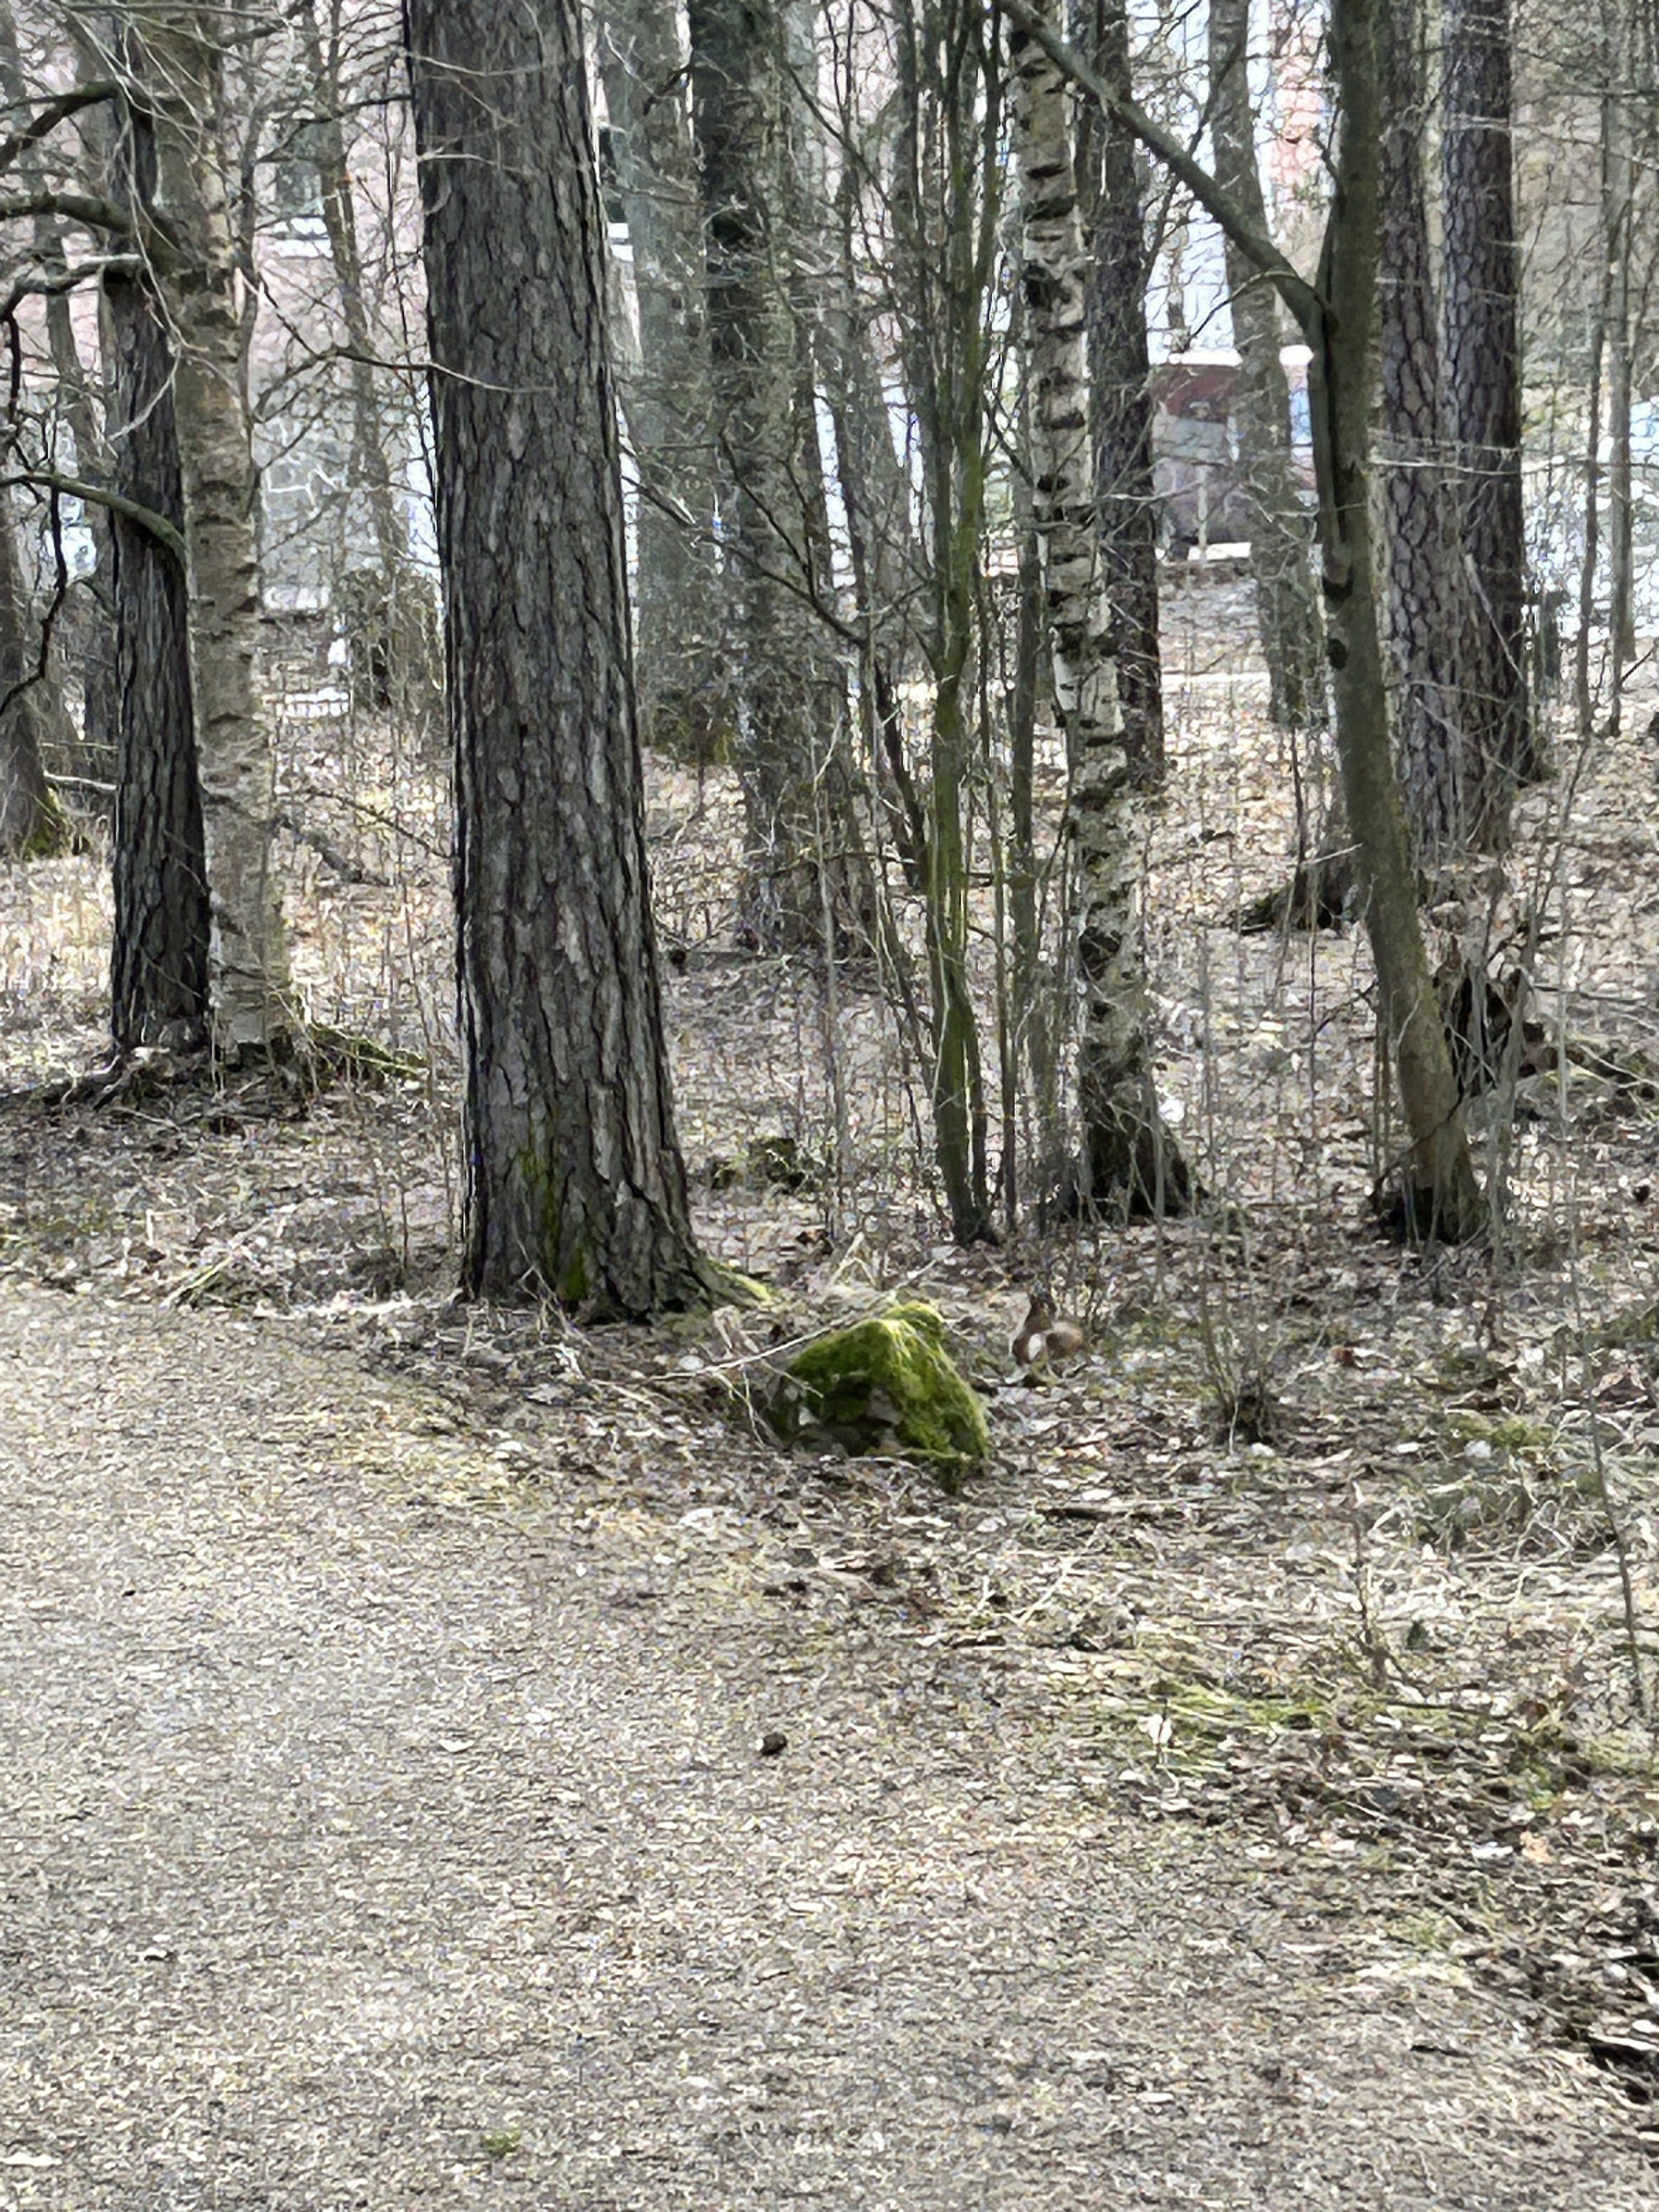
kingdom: Animalia
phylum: Chordata
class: Mammalia
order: Rodentia
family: Sciuridae
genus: Sciurus
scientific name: Sciurus vulgaris
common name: Eurasian red squirrel
